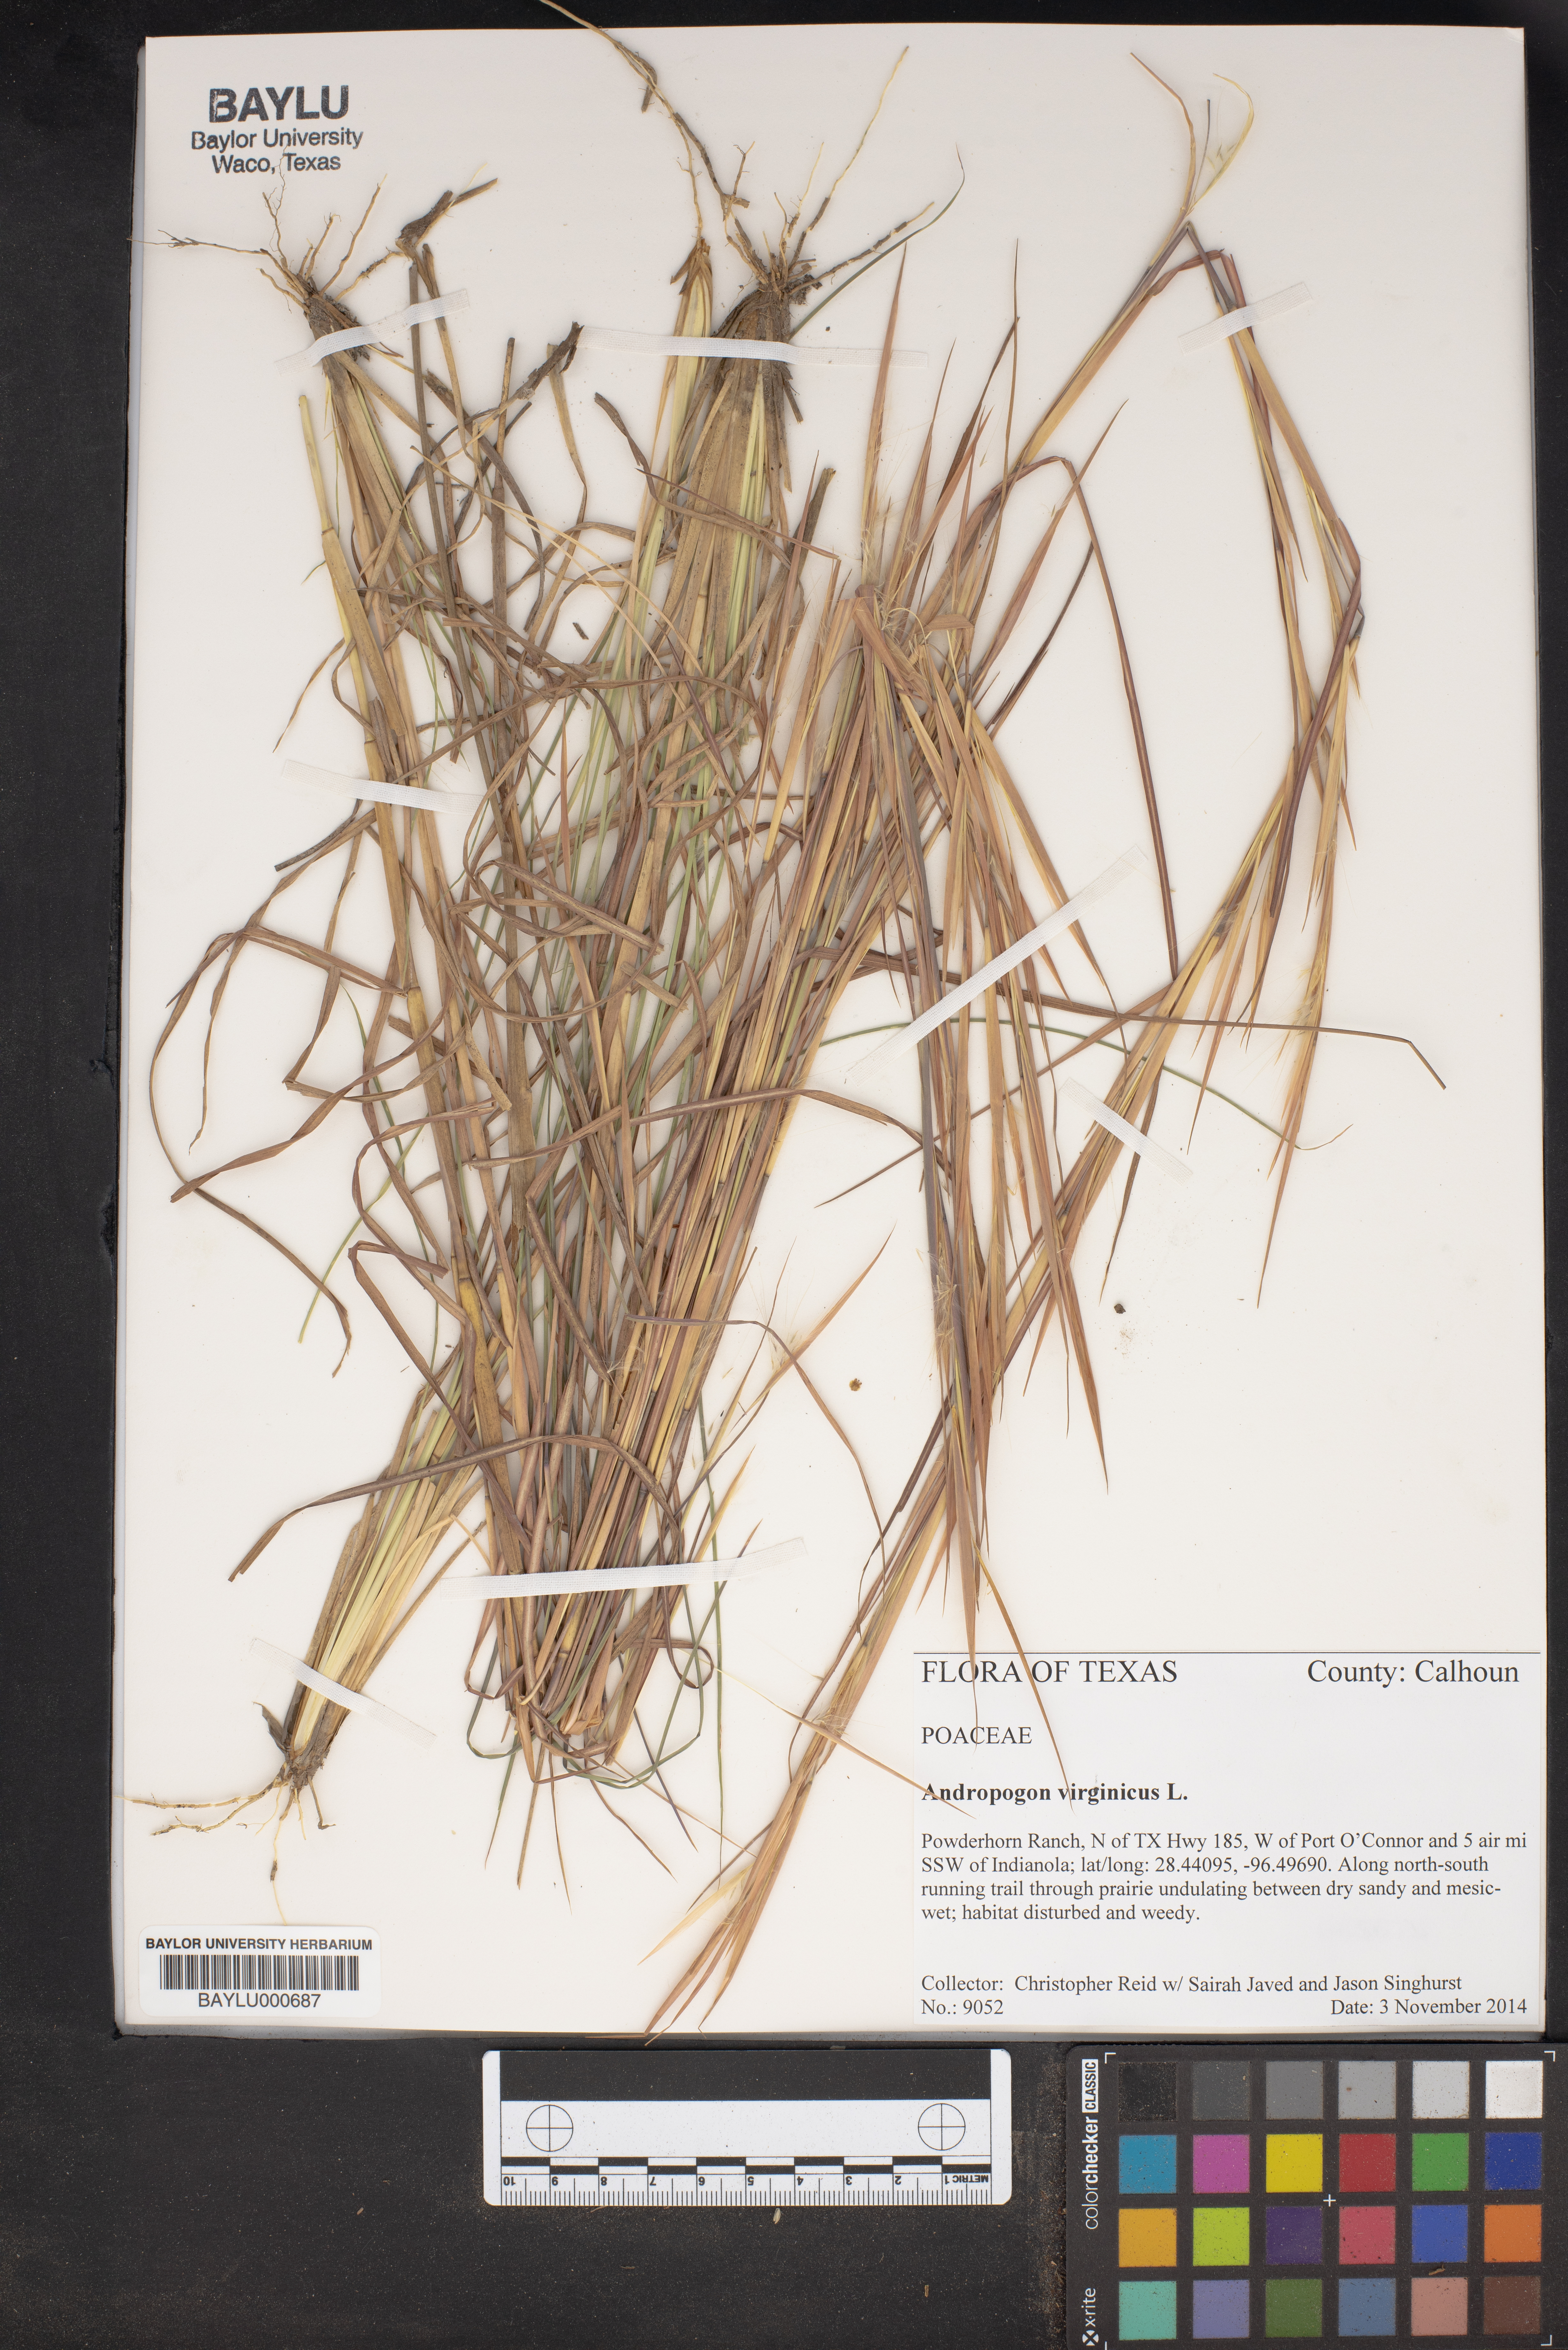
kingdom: Plantae
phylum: Tracheophyta
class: Liliopsida
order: Poales
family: Poaceae
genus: Andropogon
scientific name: Andropogon virginicus
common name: Broomsedge bluestem
